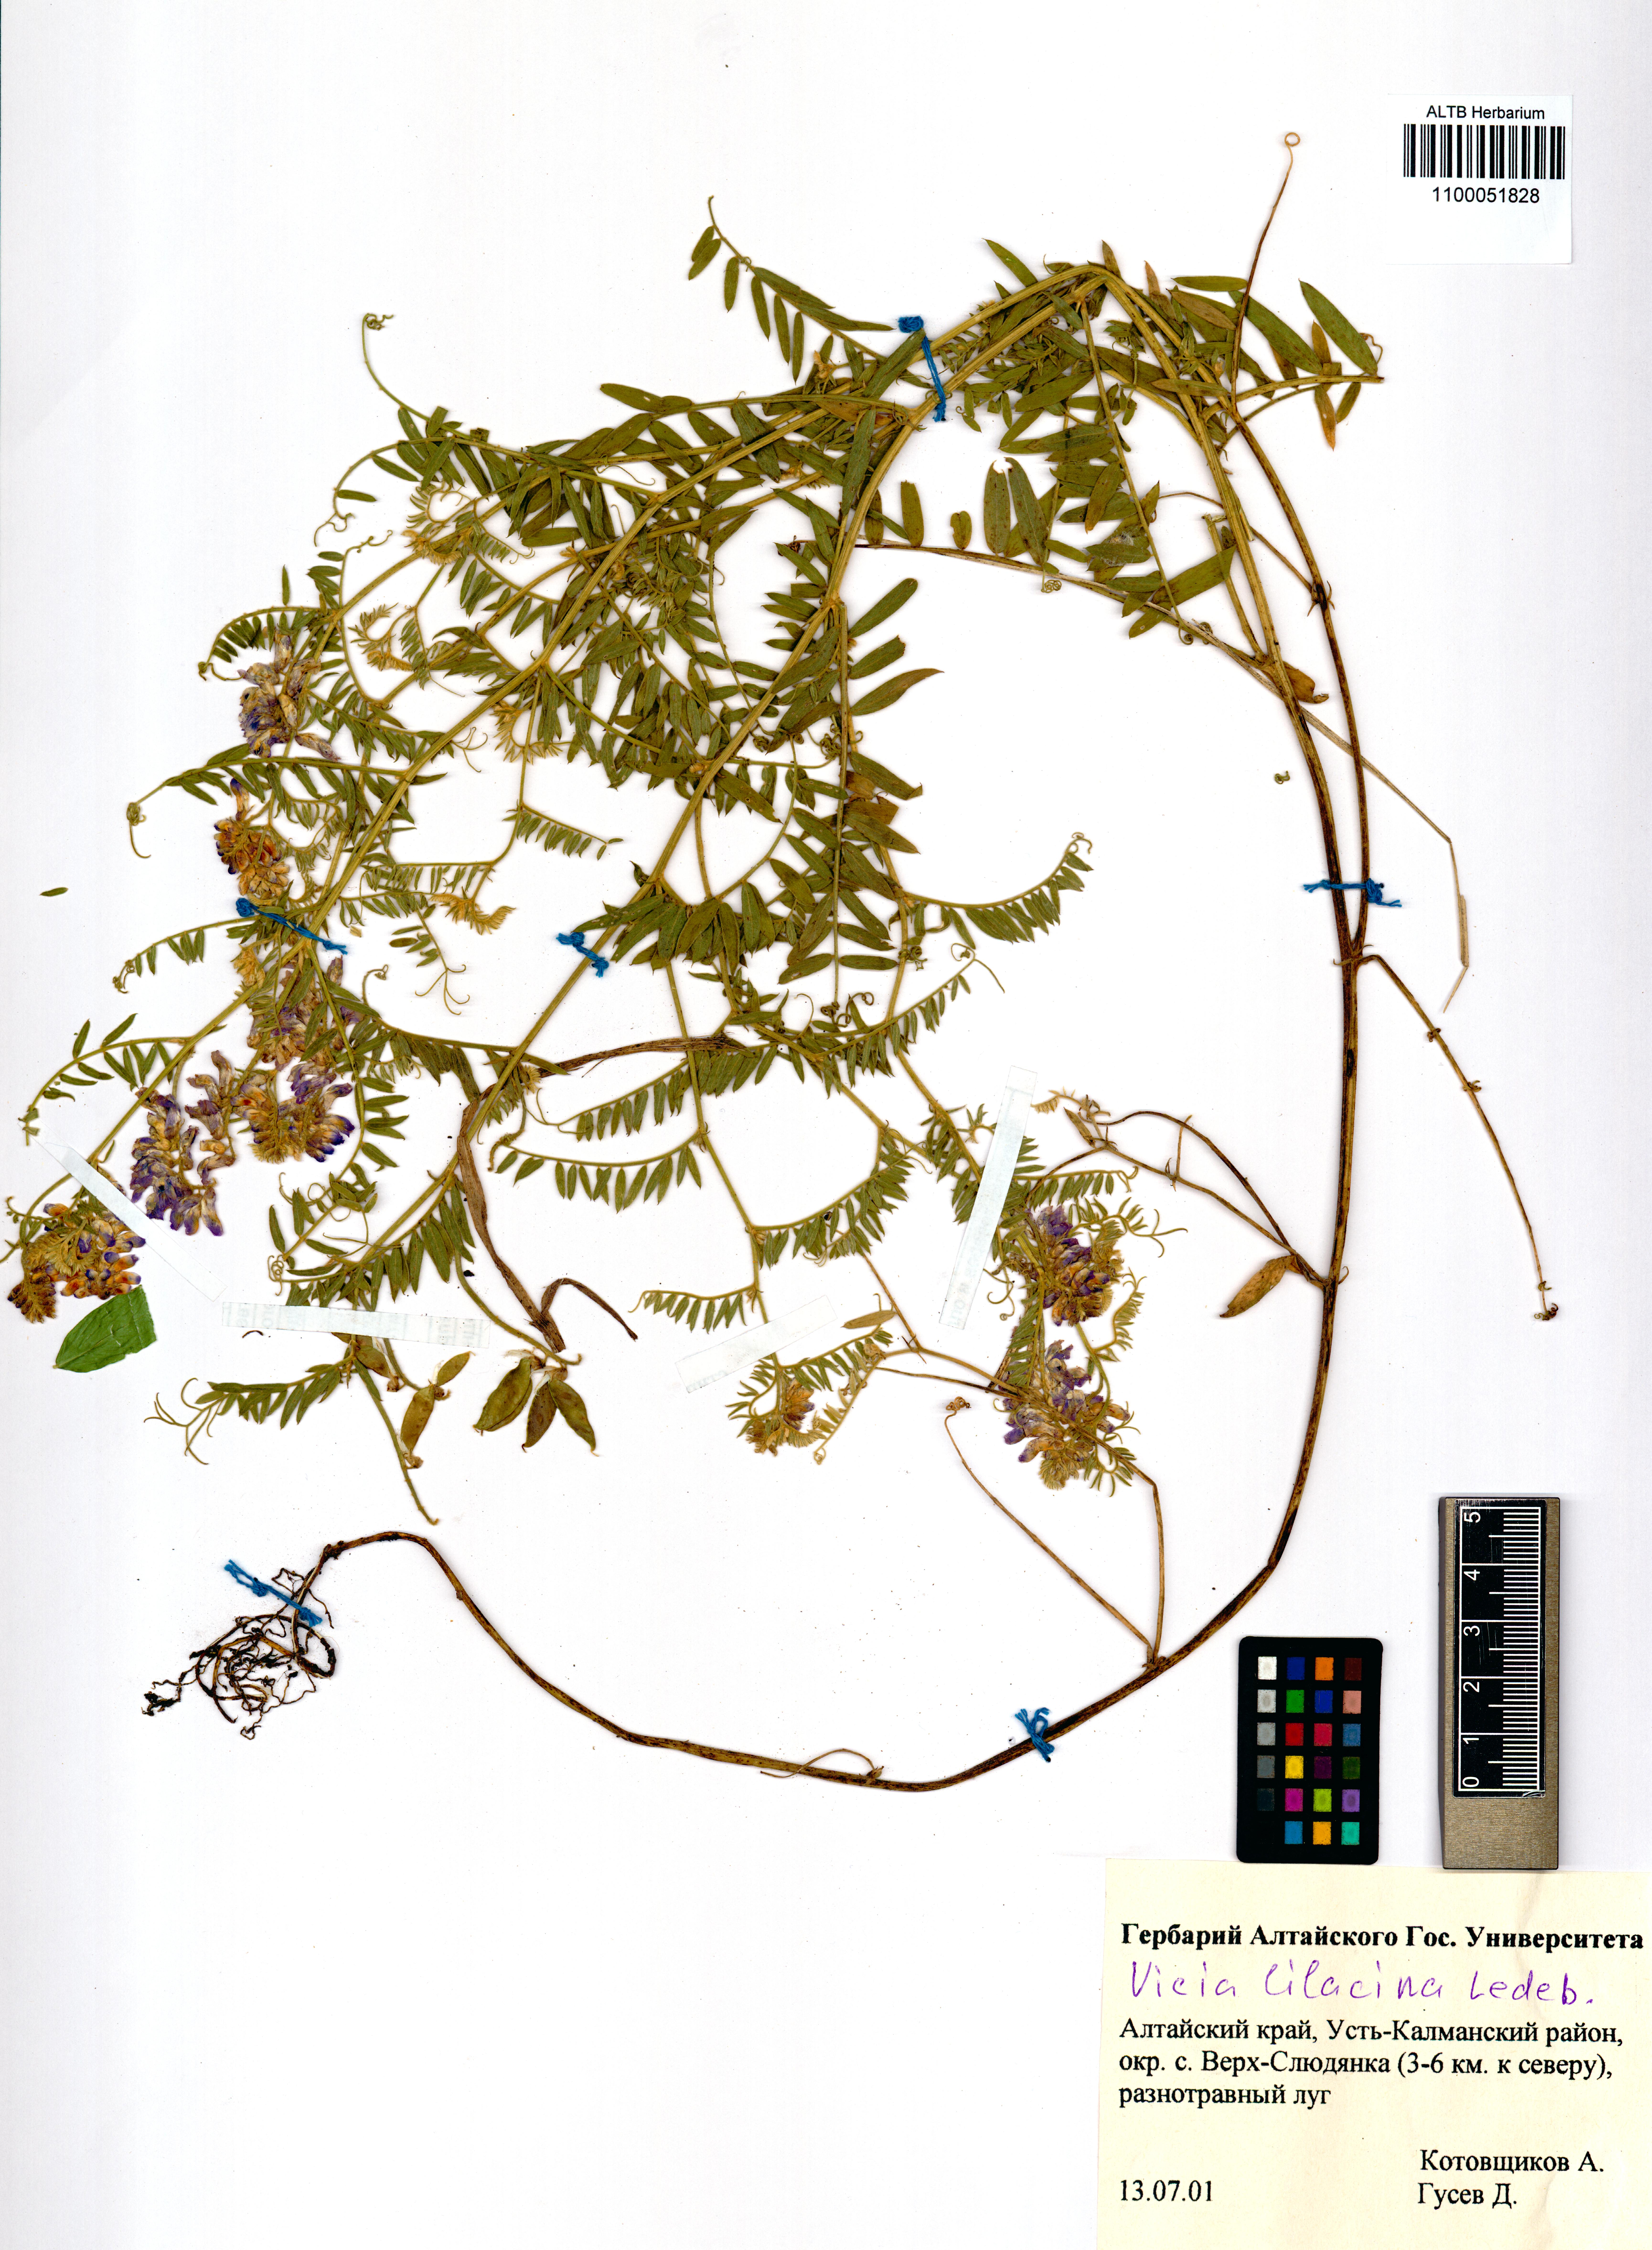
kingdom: Plantae
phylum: Tracheophyta
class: Magnoliopsida
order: Fabales
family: Fabaceae
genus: Vicia
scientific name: Vicia lilacina
